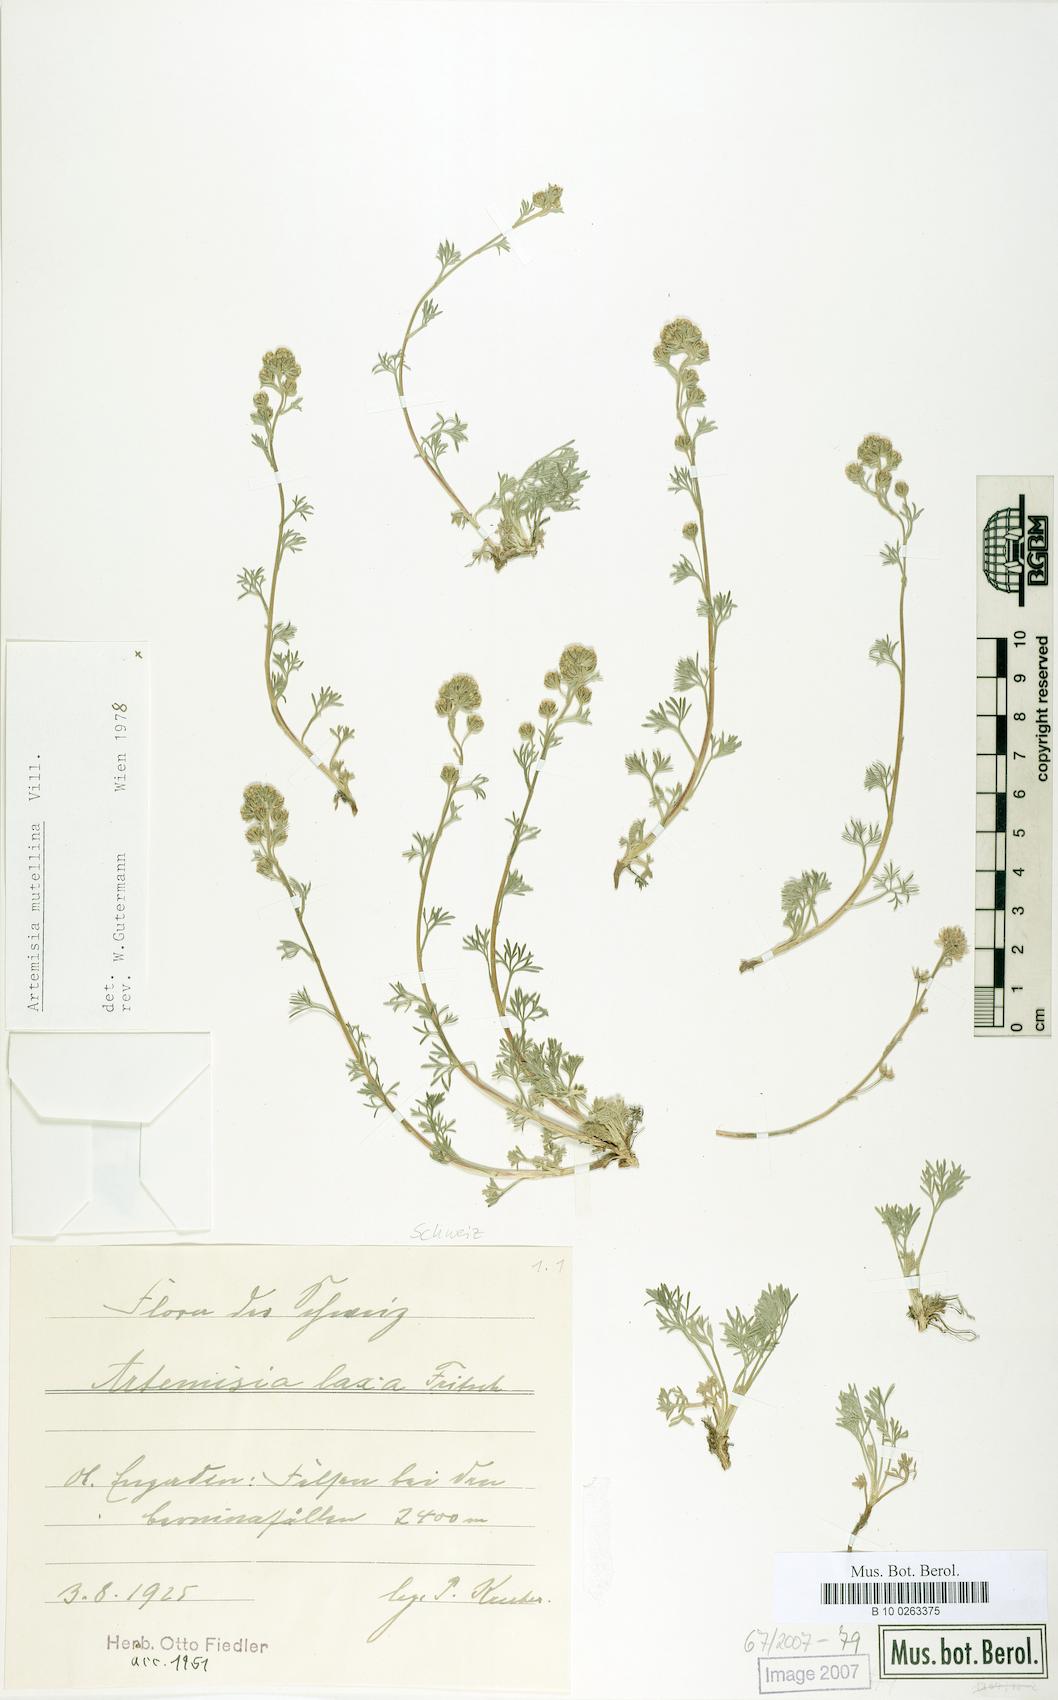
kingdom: Plantae
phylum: Tracheophyta
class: Magnoliopsida
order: Asterales
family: Asteraceae
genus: Artemisia
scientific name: Artemisia mutellina
